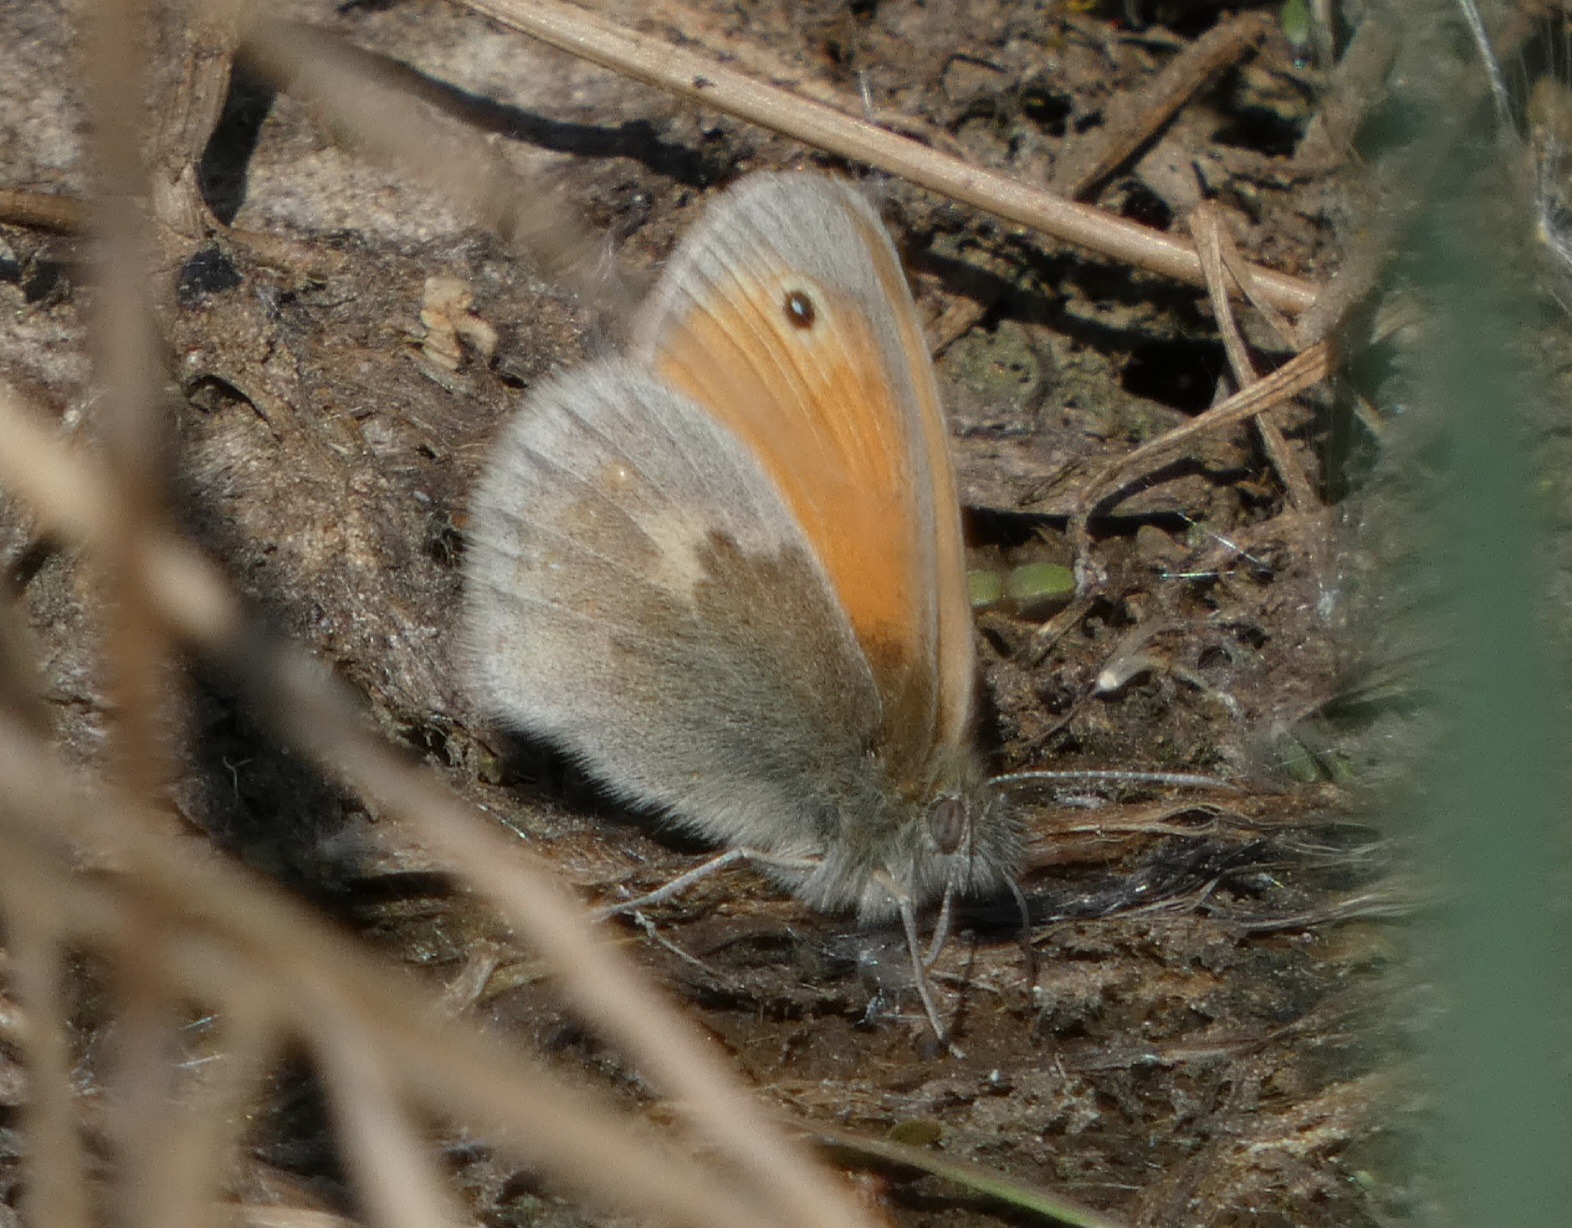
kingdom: Animalia
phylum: Arthropoda
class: Insecta
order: Lepidoptera
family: Nymphalidae
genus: Coenonympha
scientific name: Coenonympha pamphilus
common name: Okkergul randøje
